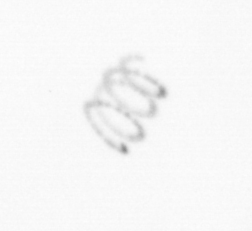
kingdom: Chromista
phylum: Ochrophyta
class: Bacillariophyceae
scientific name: Bacillariophyceae
